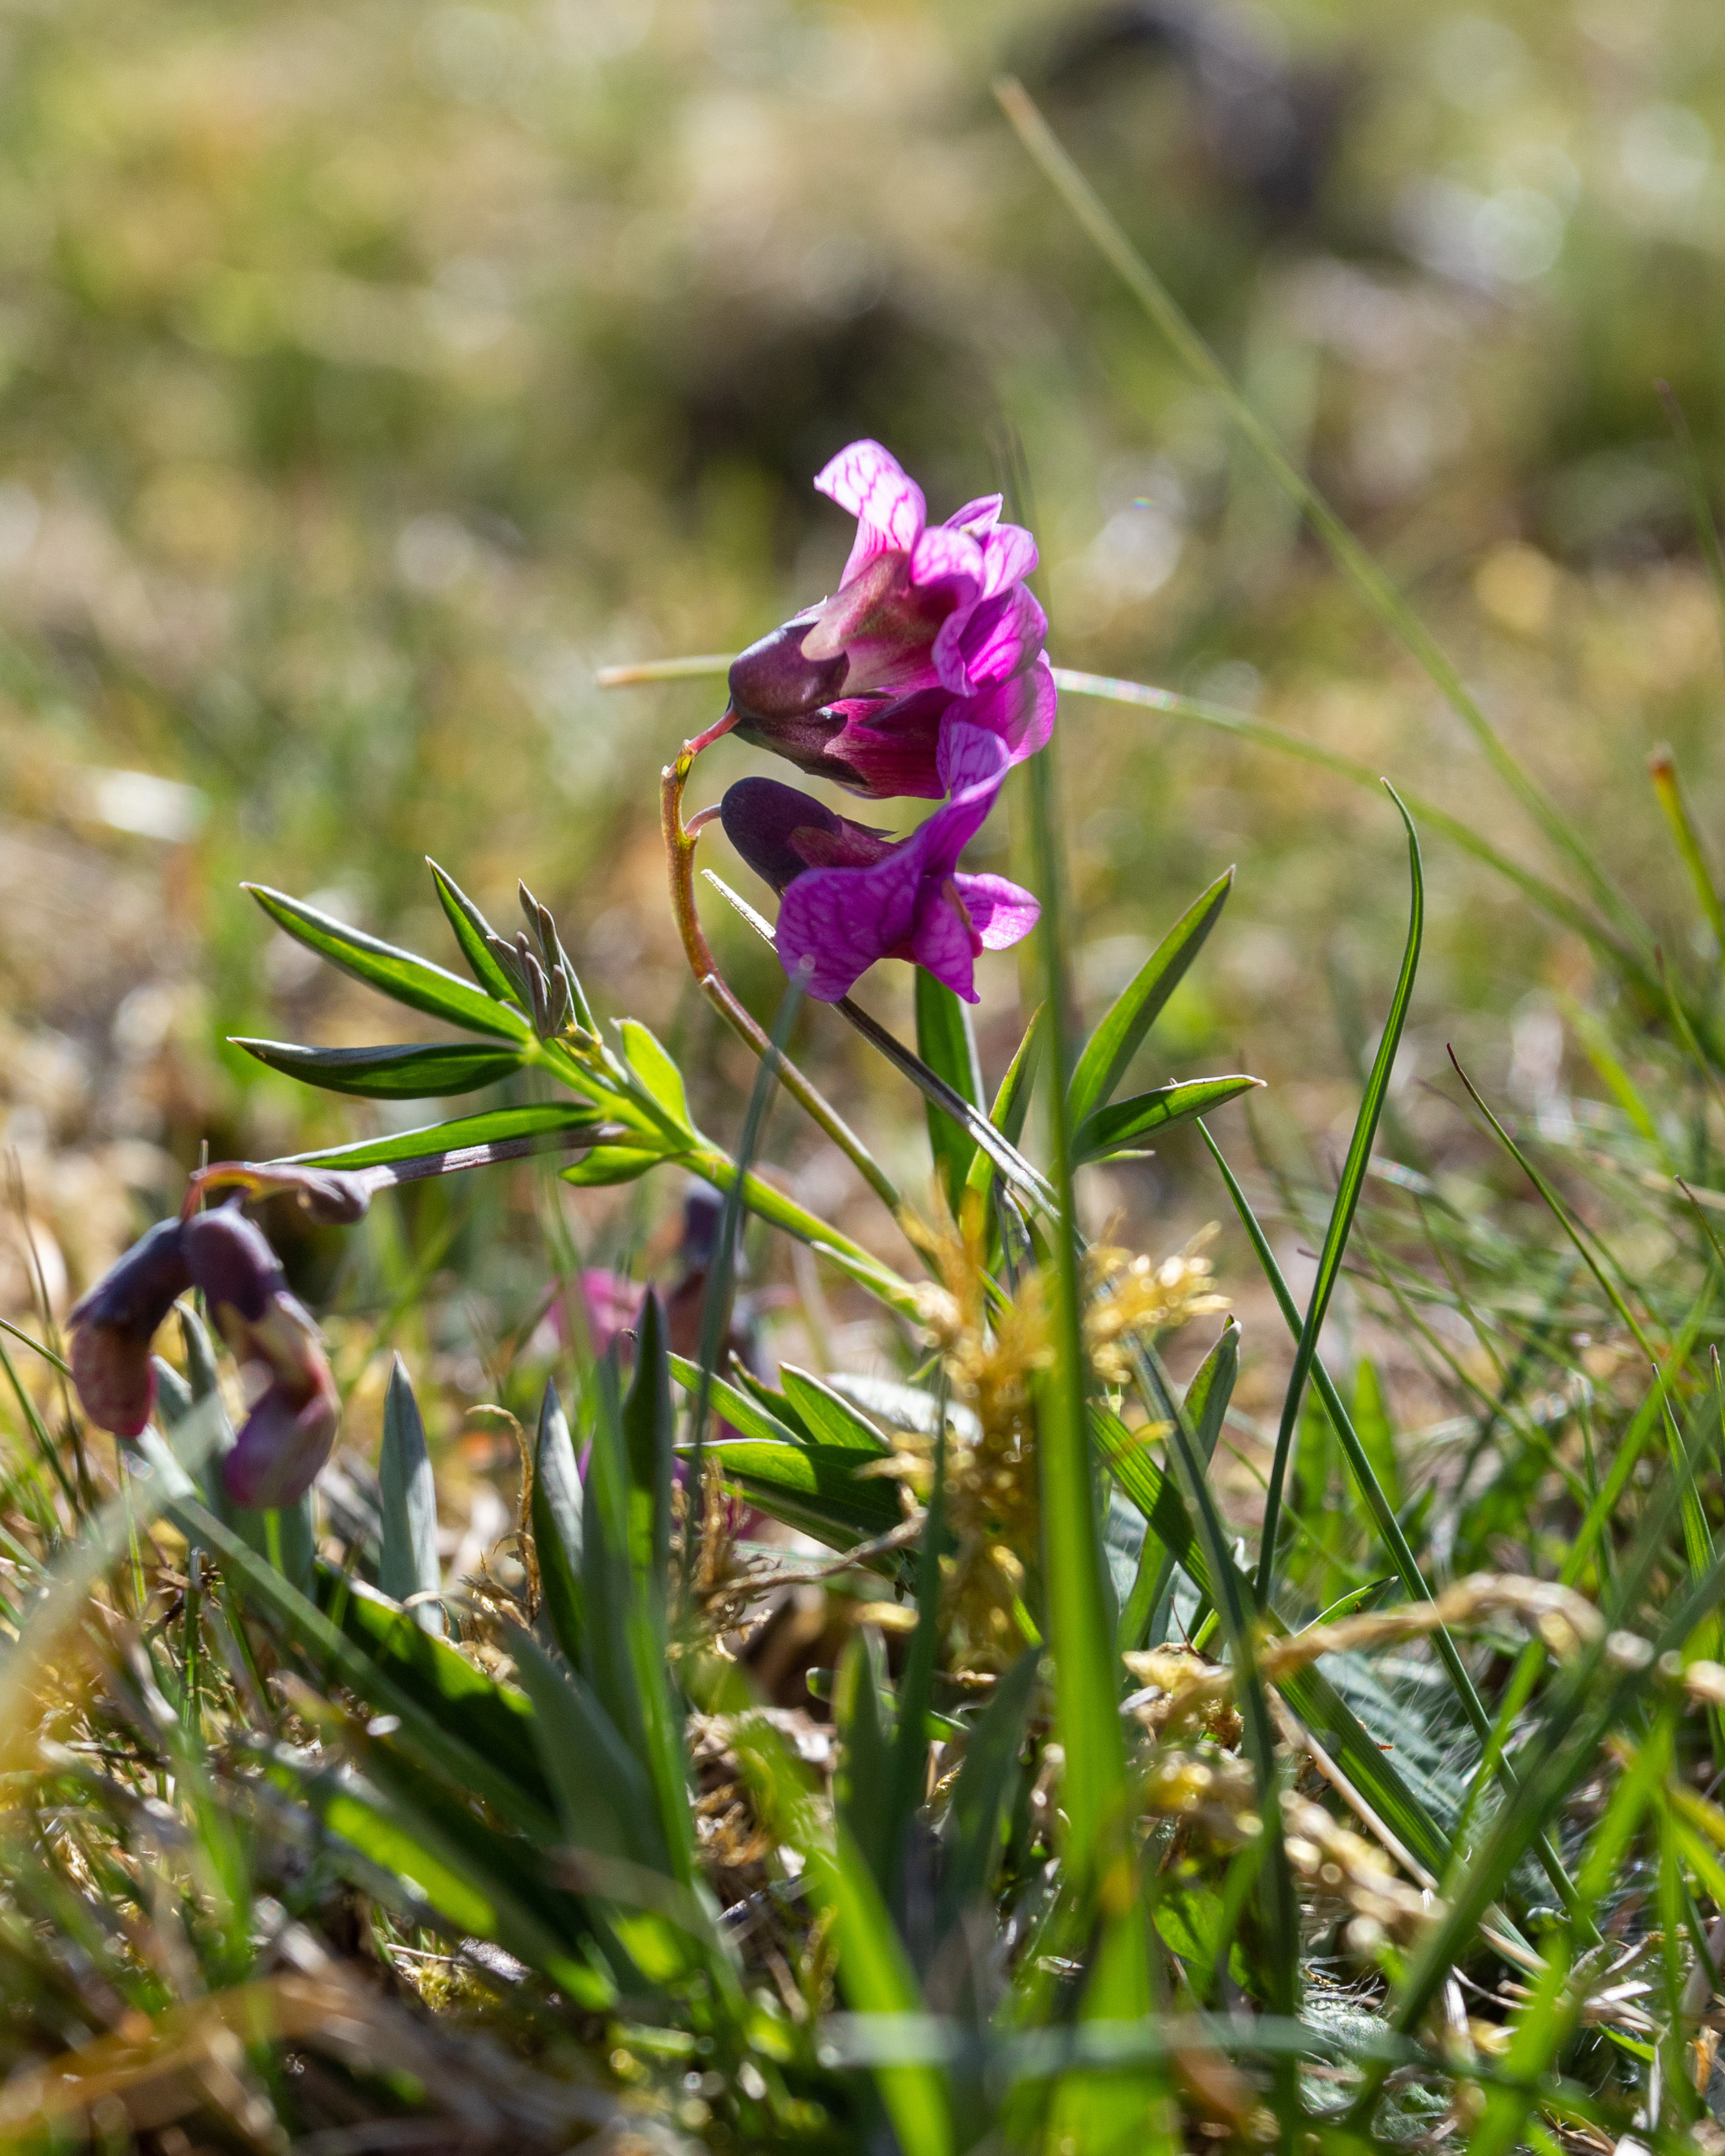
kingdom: Plantae
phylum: Tracheophyta
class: Magnoliopsida
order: Fabales
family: Fabaceae
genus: Lathyrus
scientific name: Lathyrus linifolius
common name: Krat-fladbælg
